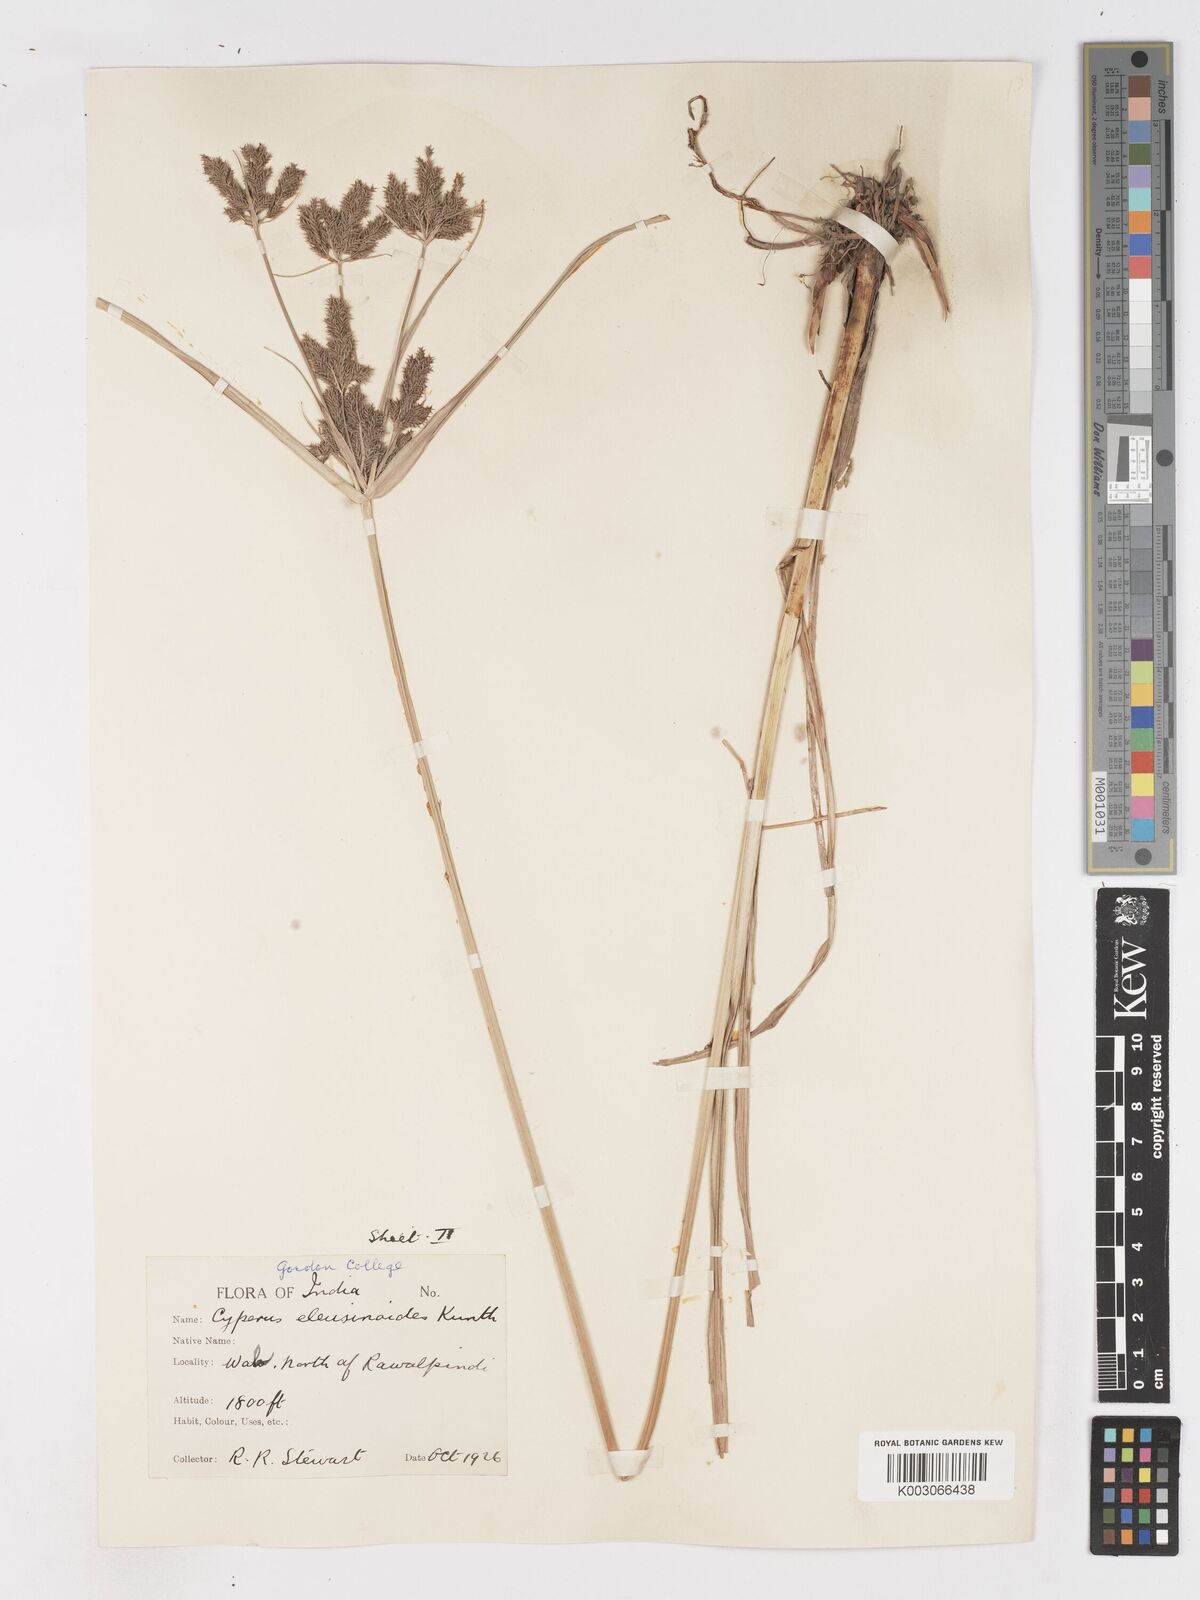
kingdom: Plantae
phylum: Tracheophyta
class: Liliopsida
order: Poales
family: Cyperaceae
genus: Cyperus
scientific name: Cyperus nutans
